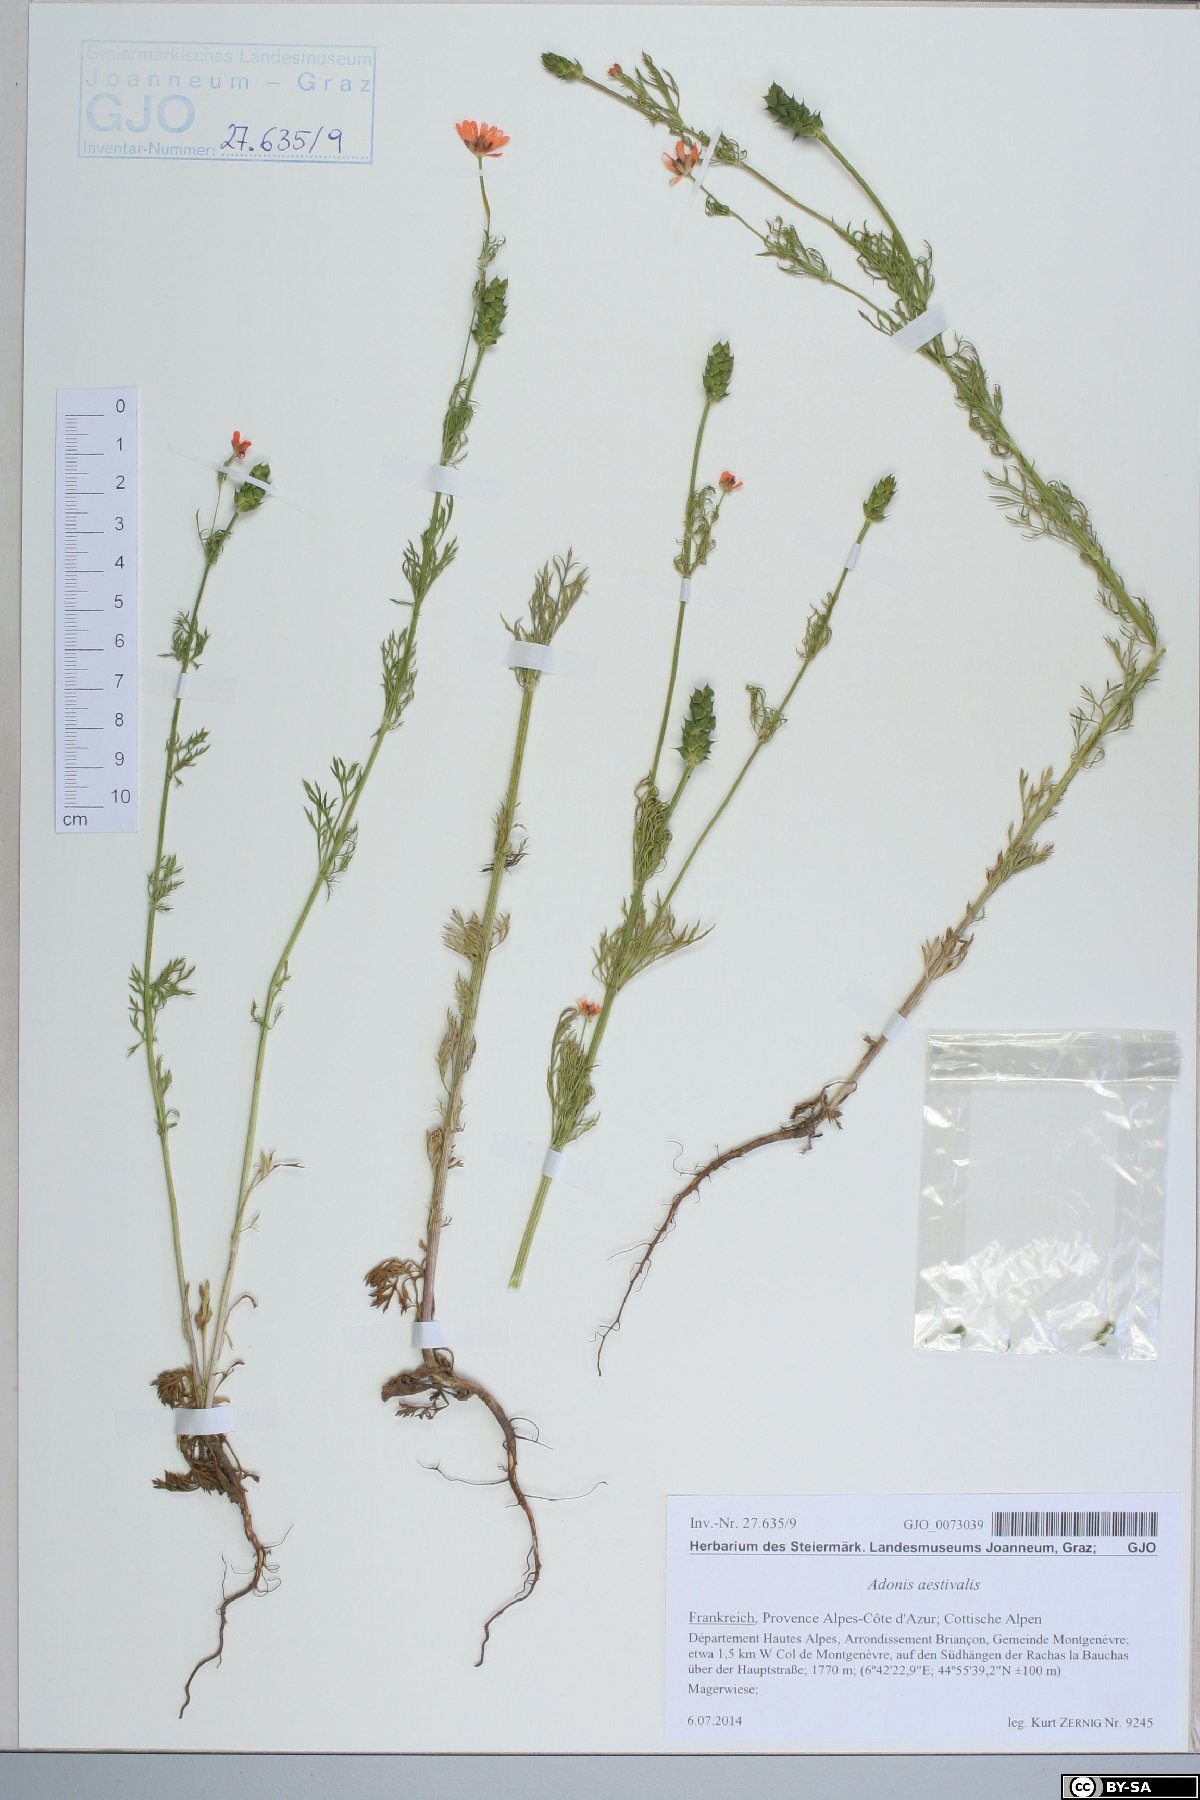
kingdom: Plantae
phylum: Tracheophyta
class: Magnoliopsida
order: Ranunculales
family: Ranunculaceae
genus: Adonis
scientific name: Adonis aestivalis
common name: Summer pheasant's-eye
